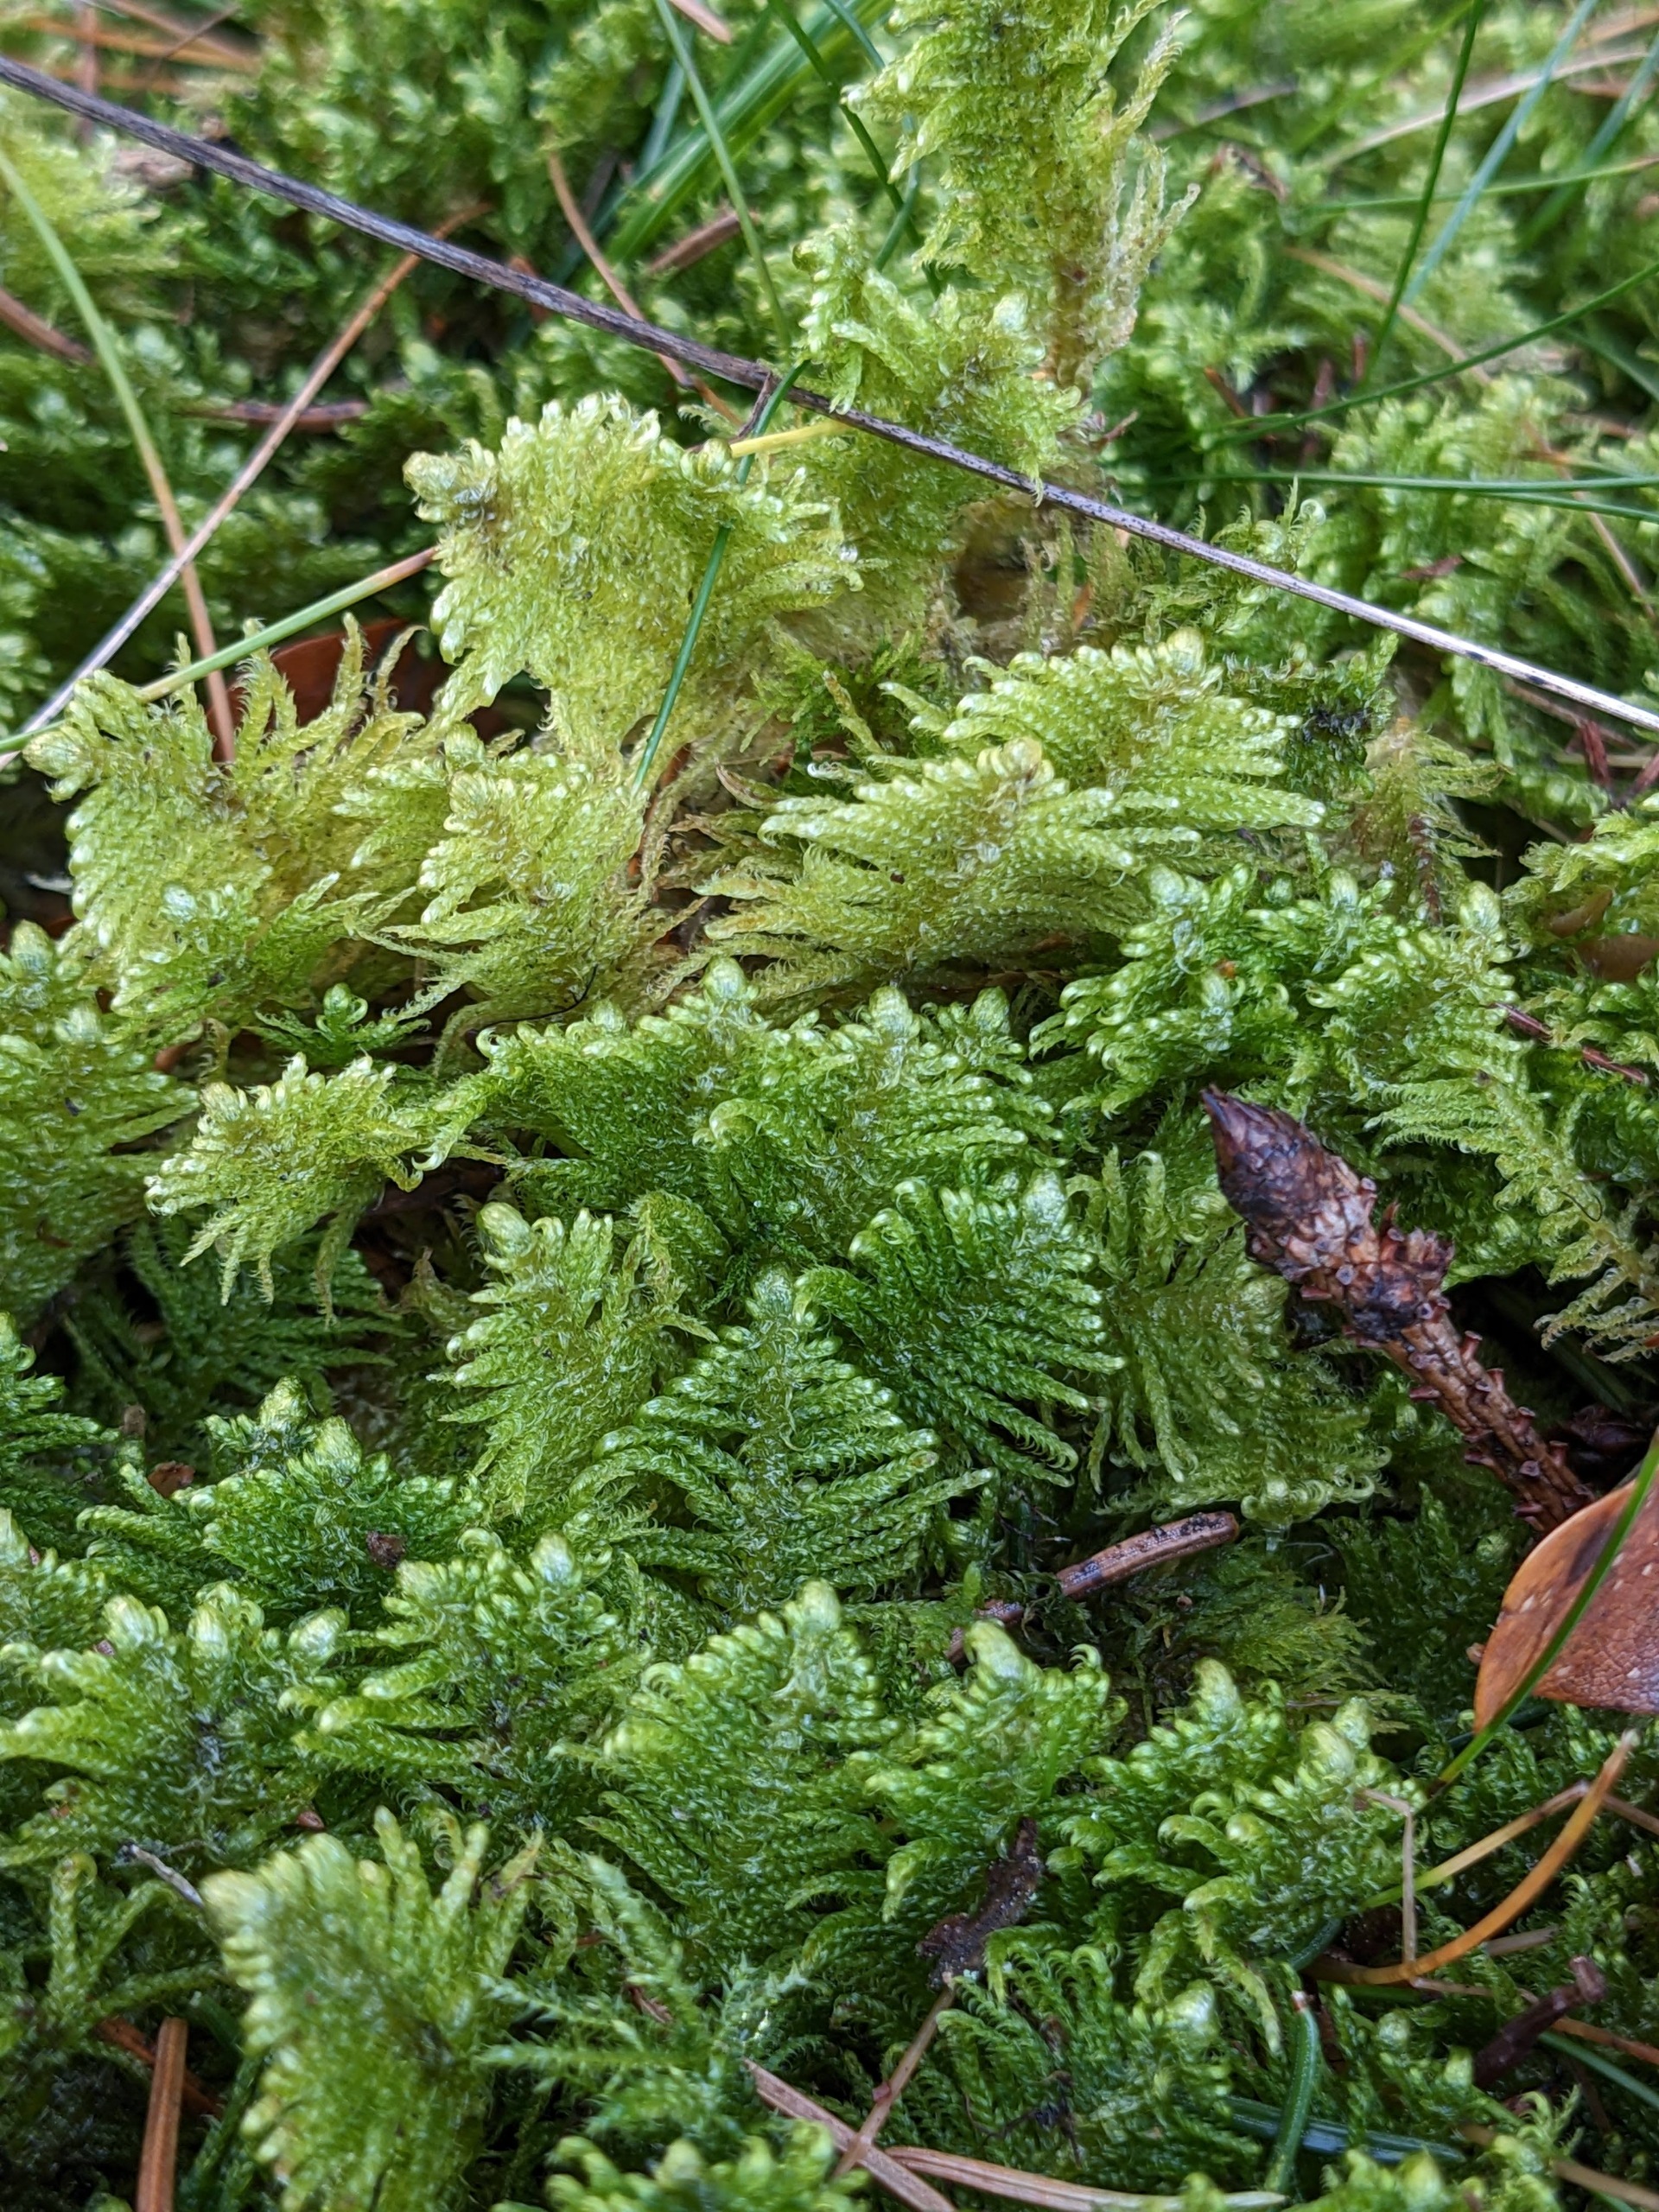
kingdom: Plantae
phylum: Bryophyta
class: Bryopsida
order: Hypnales
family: Pylaisiaceae
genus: Ptilium
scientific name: Ptilium crista-castrensis
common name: Fjer-kammos
